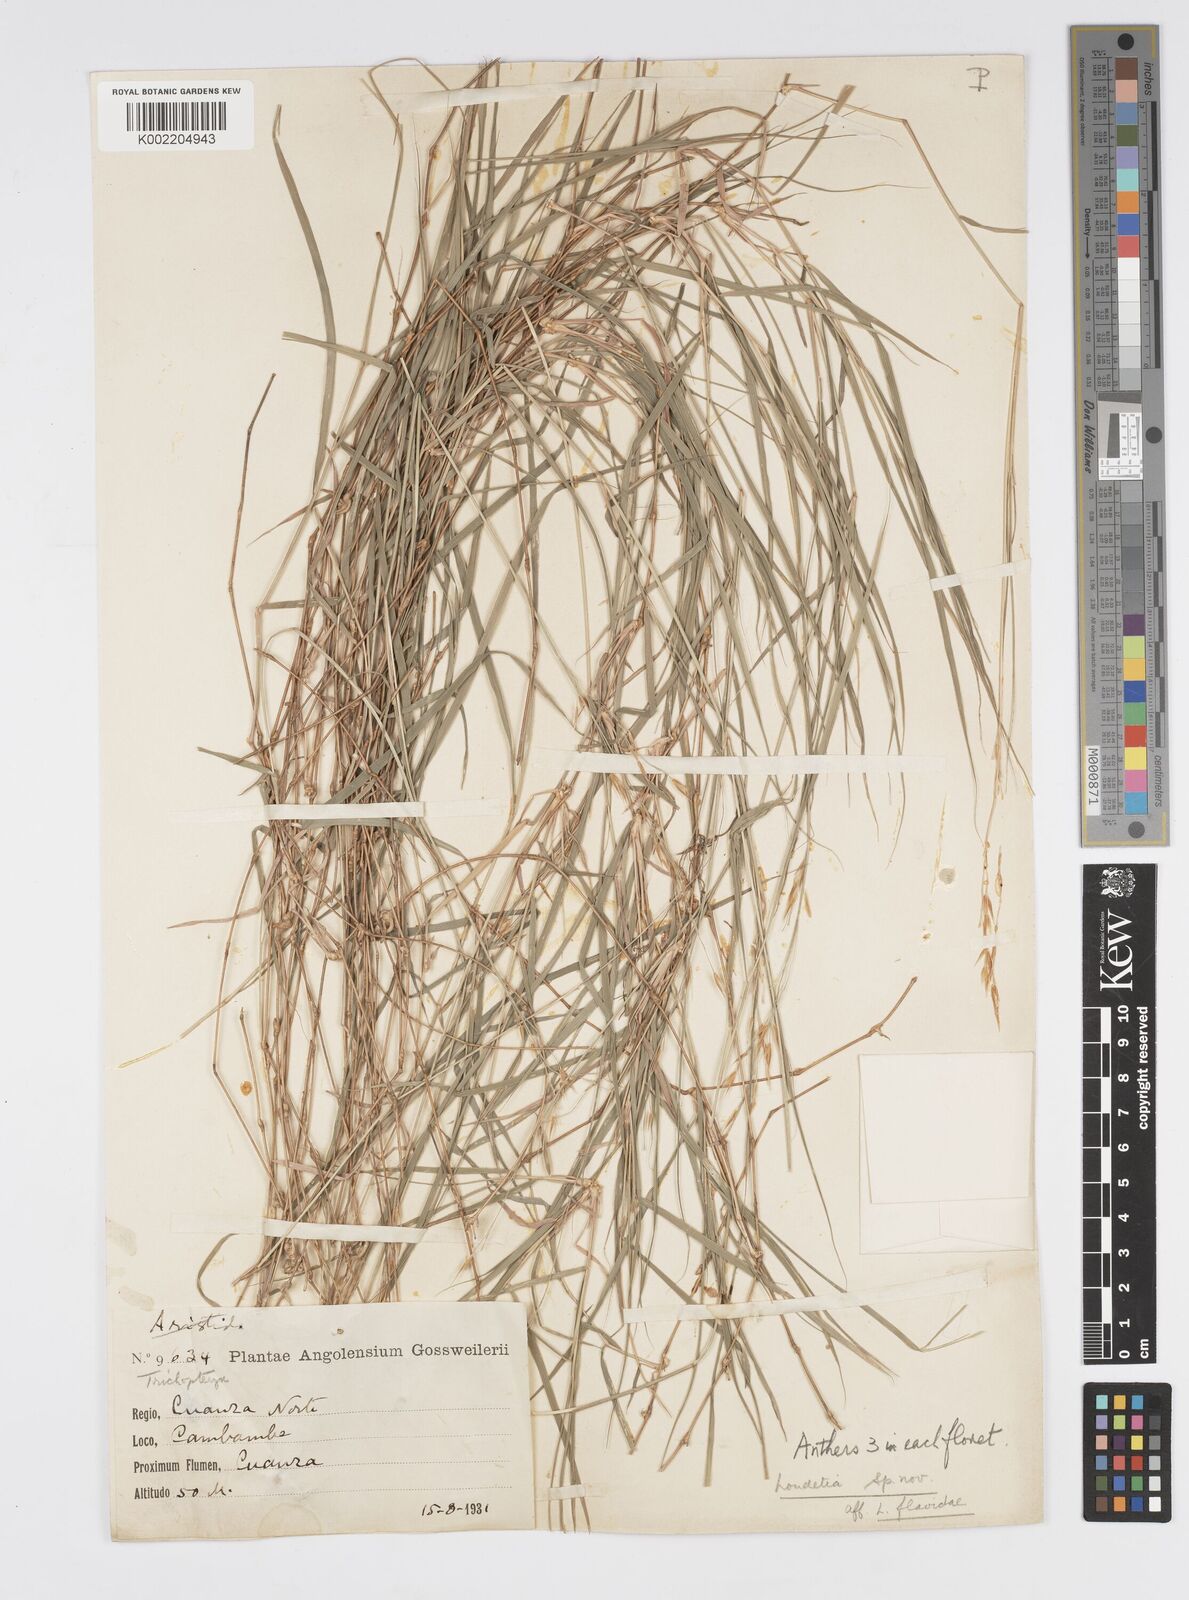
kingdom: Plantae
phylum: Tracheophyta
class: Liliopsida
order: Poales
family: Poaceae
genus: Loudetia
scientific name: Loudetia cuanzensis
